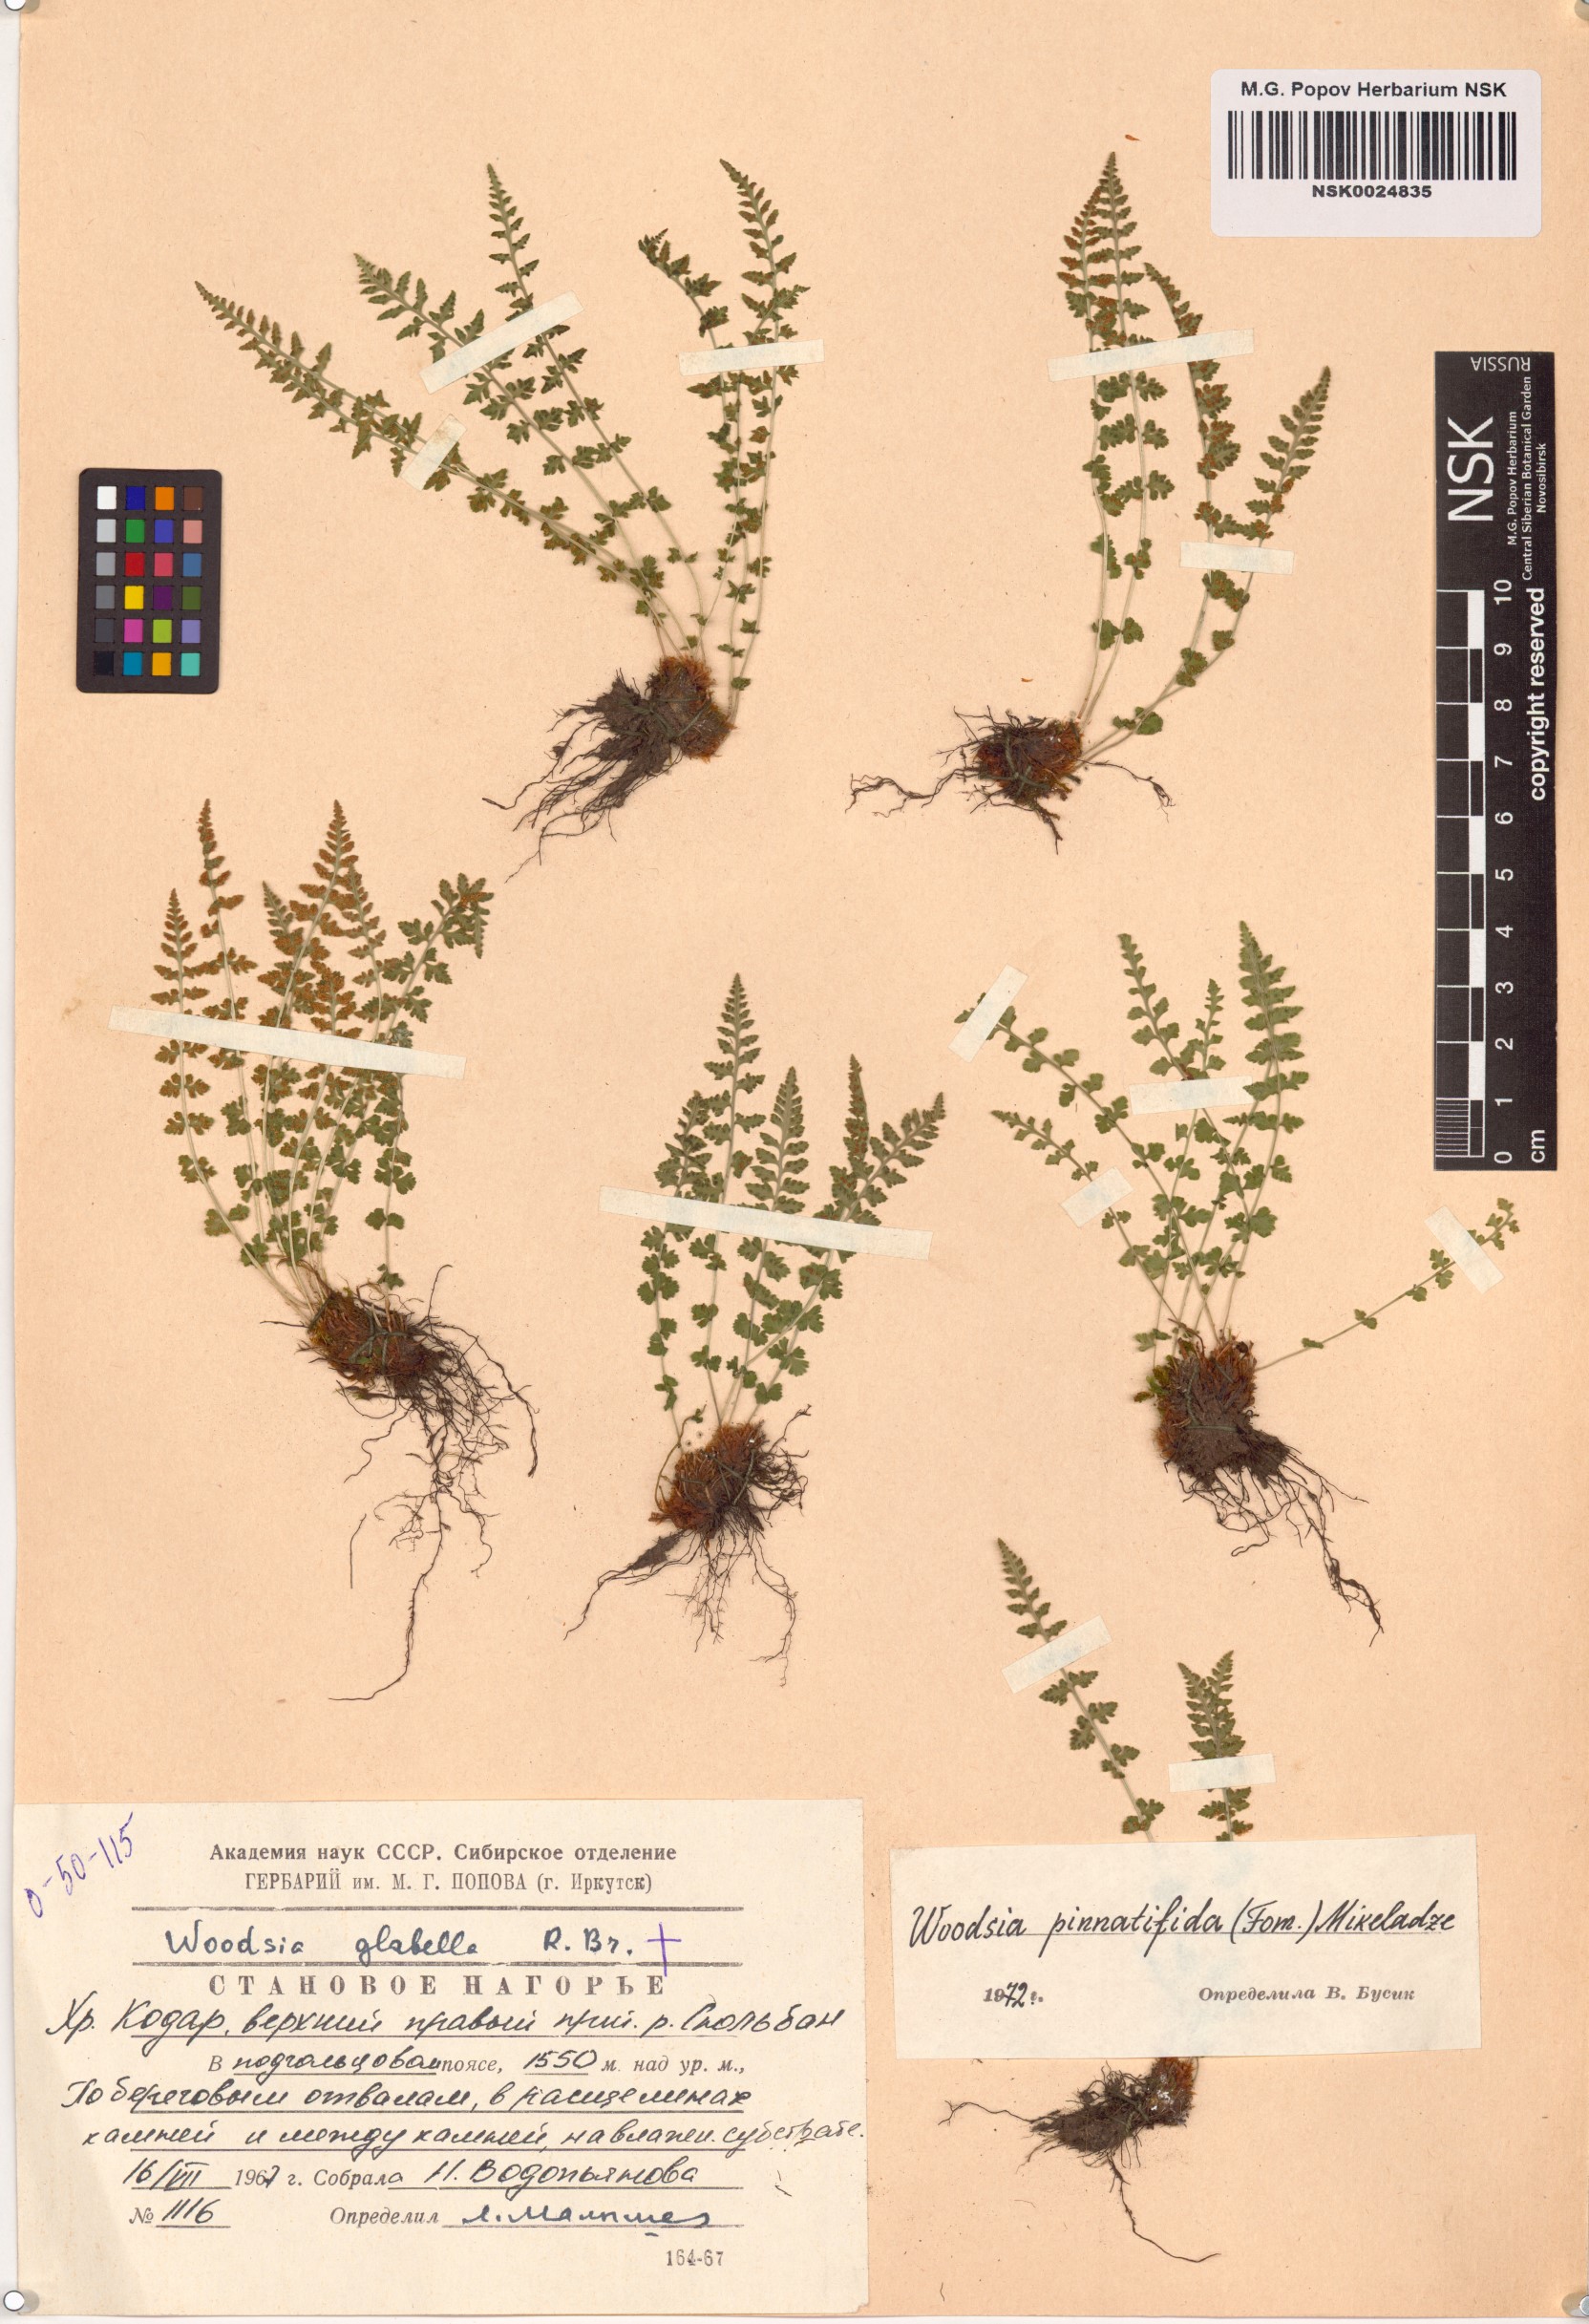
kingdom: Plantae
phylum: Tracheophyta
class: Polypodiopsida
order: Polypodiales
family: Woodsiaceae
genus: Woodsia
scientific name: Woodsia pulchella
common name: Graceful woodsia
